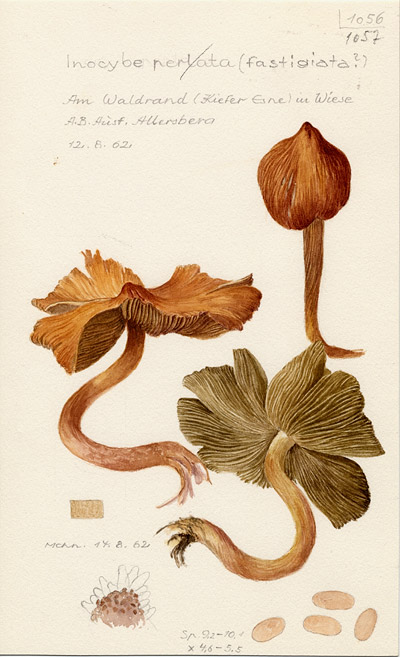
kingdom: Fungi
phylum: Basidiomycota
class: Agaricomycetes
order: Agaricales
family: Inocybaceae
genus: Pseudosperma
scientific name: Pseudosperma rimosum
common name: Split fibrecap
